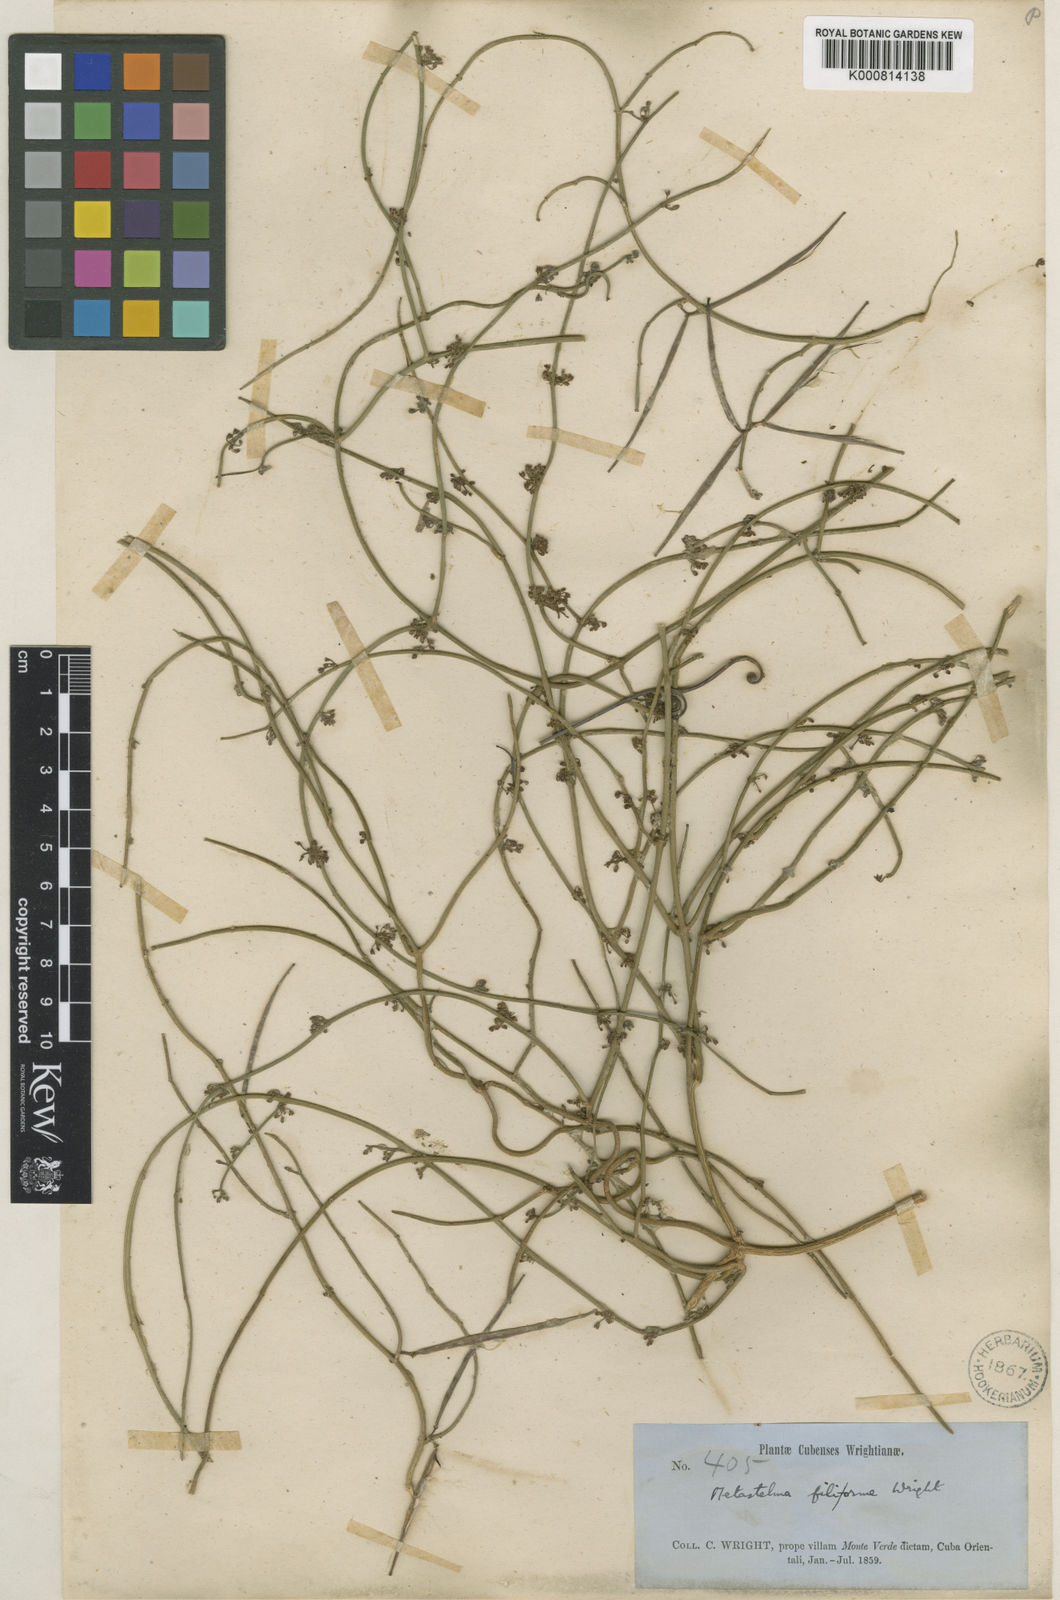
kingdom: Plantae
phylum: Tracheophyta
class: Magnoliopsida
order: Gentianales
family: Apocynaceae
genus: Orthosia
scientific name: Orthosia scoparia
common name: Leafless swallow-wort
